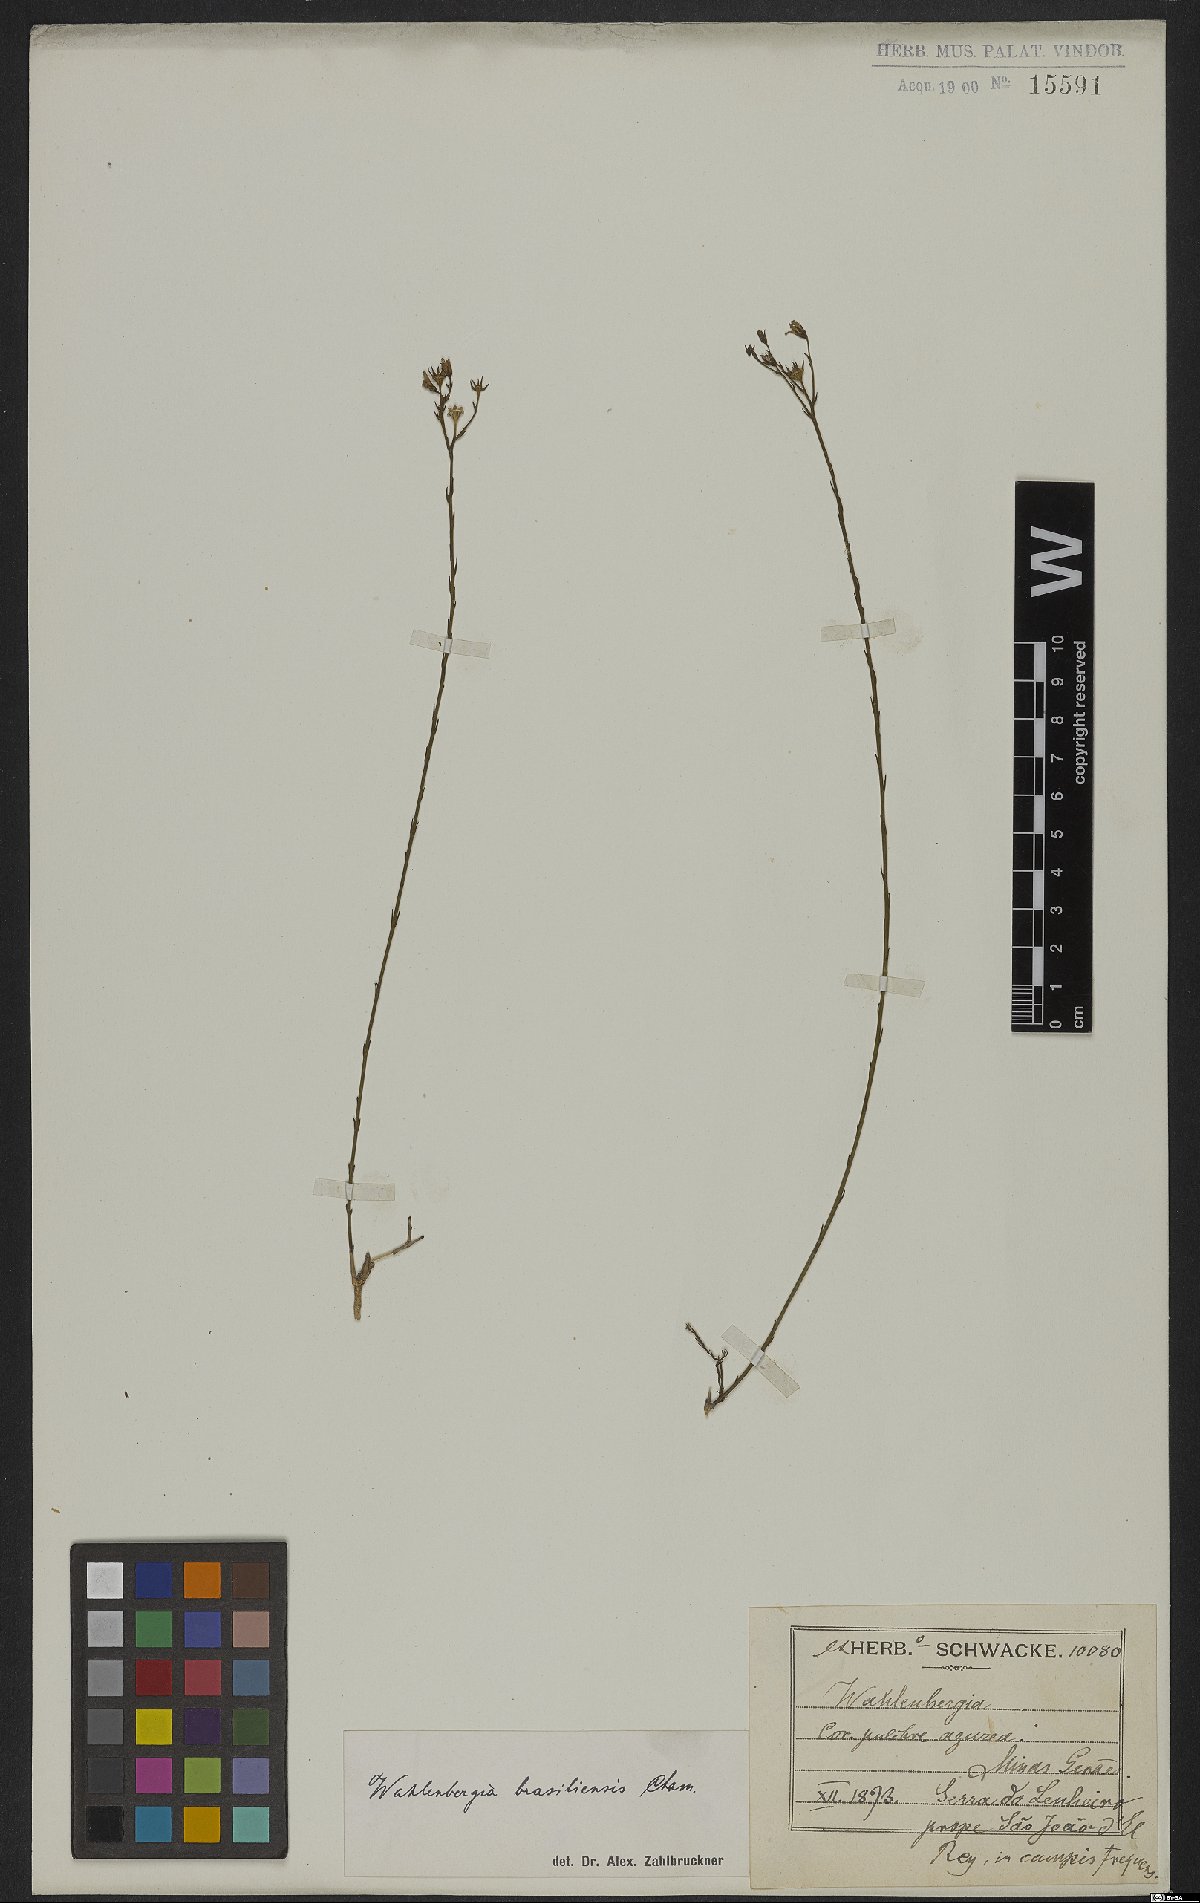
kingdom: Plantae
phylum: Tracheophyta
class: Magnoliopsida
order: Asterales
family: Campanulaceae
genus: Wahlenbergia
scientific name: Wahlenbergia brasiliensis
